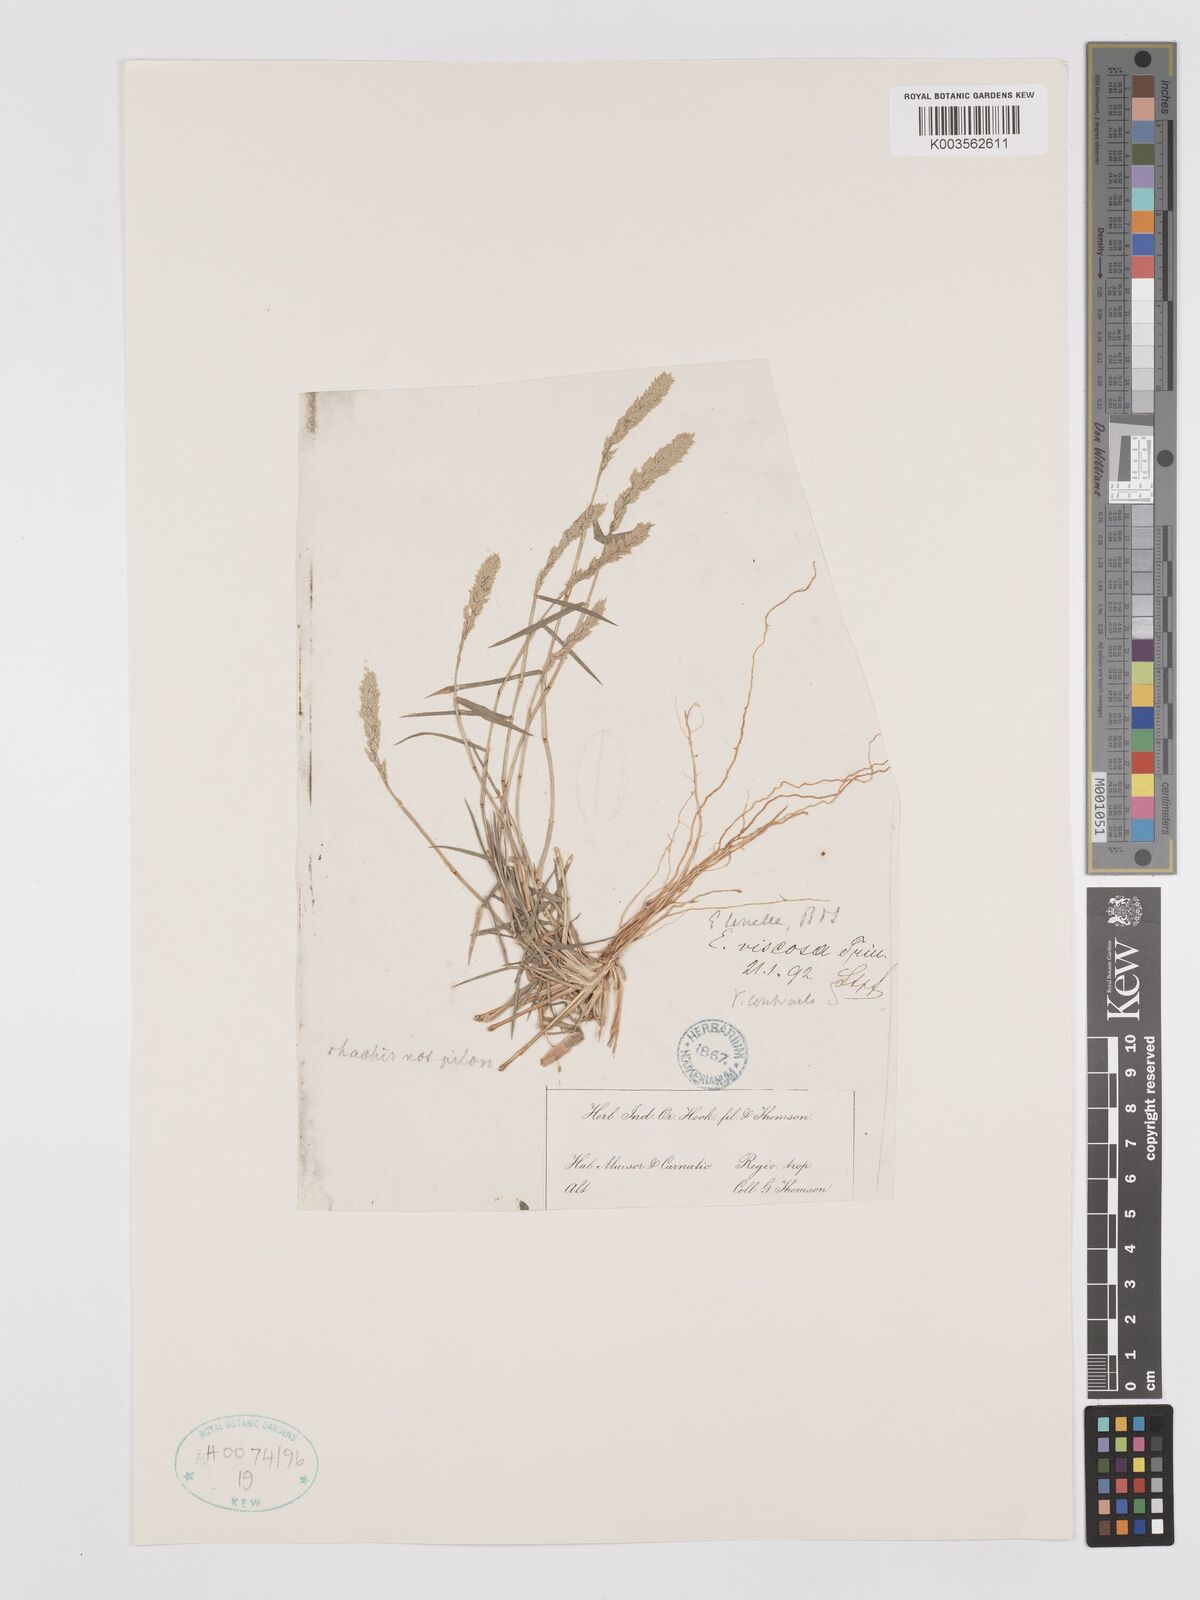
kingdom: Plantae
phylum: Tracheophyta
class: Liliopsida
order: Poales
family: Poaceae
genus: Eragrostis
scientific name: Eragrostis tenella
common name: Japanese lovegrass
